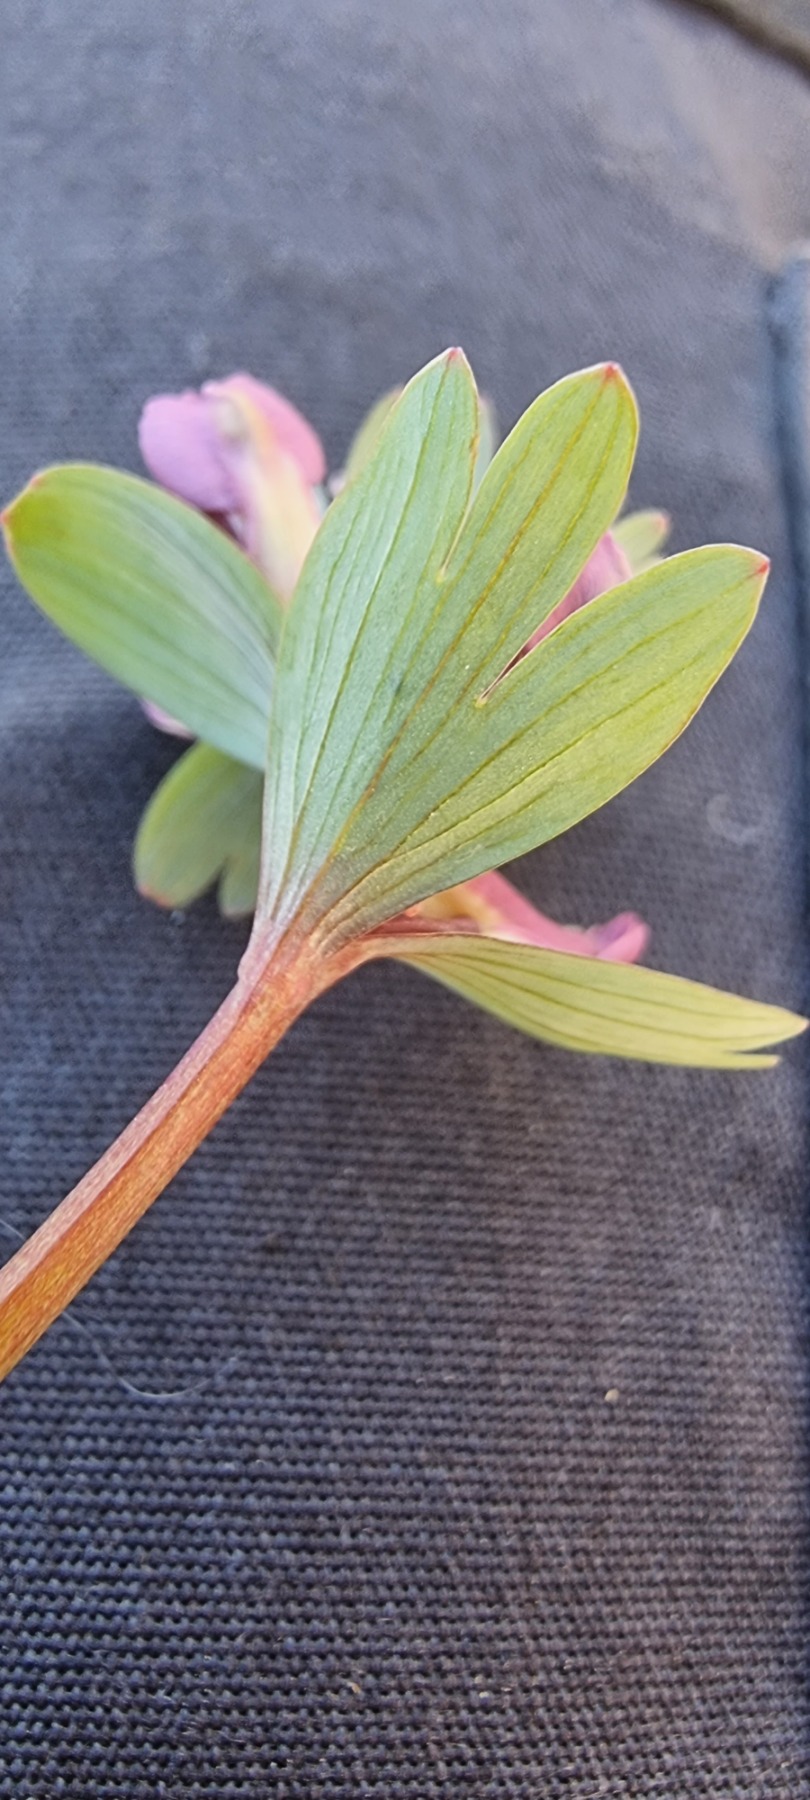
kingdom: Plantae
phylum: Tracheophyta
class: Magnoliopsida
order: Ranunculales
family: Papaveraceae
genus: Corydalis
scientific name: Corydalis solida
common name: Langstilket lærkespore
